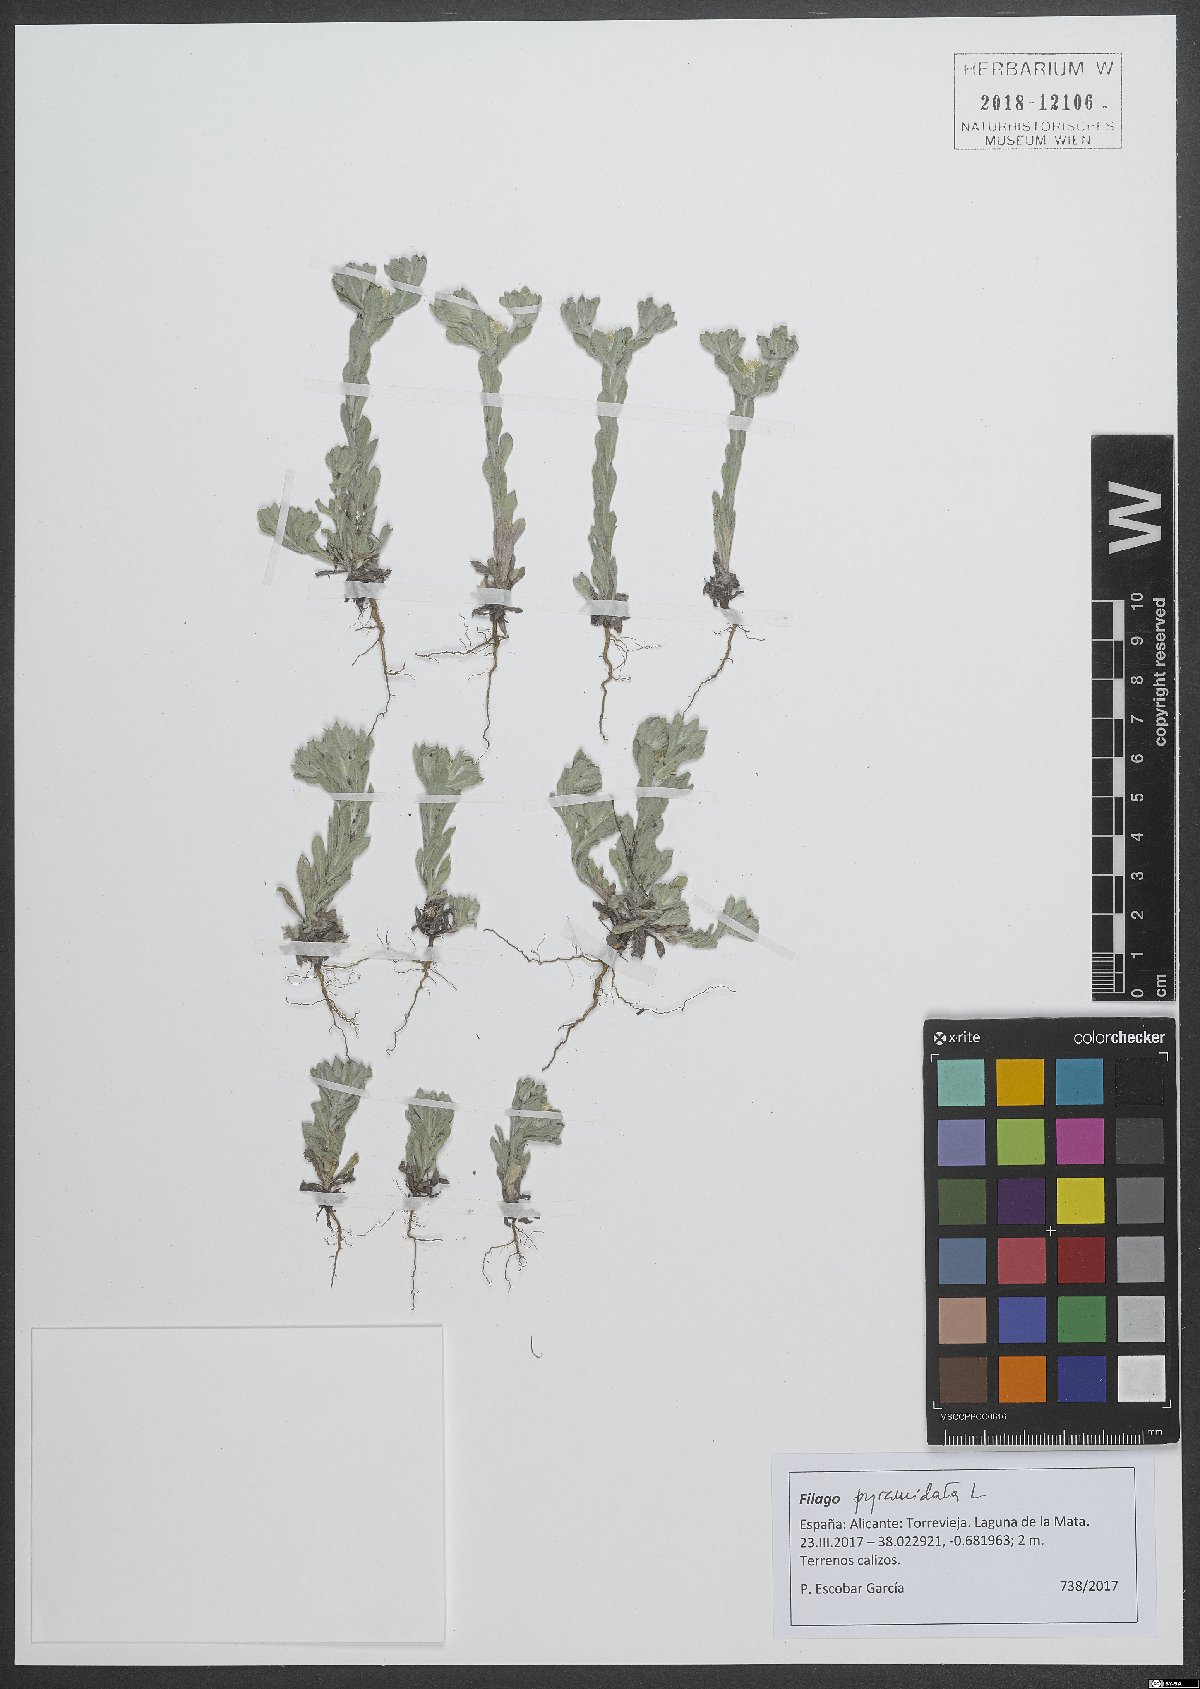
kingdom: Plantae
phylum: Tracheophyta
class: Magnoliopsida
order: Asterales
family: Asteraceae
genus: Filago
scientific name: Filago pyramidata
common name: Broad-leaved cudweed
